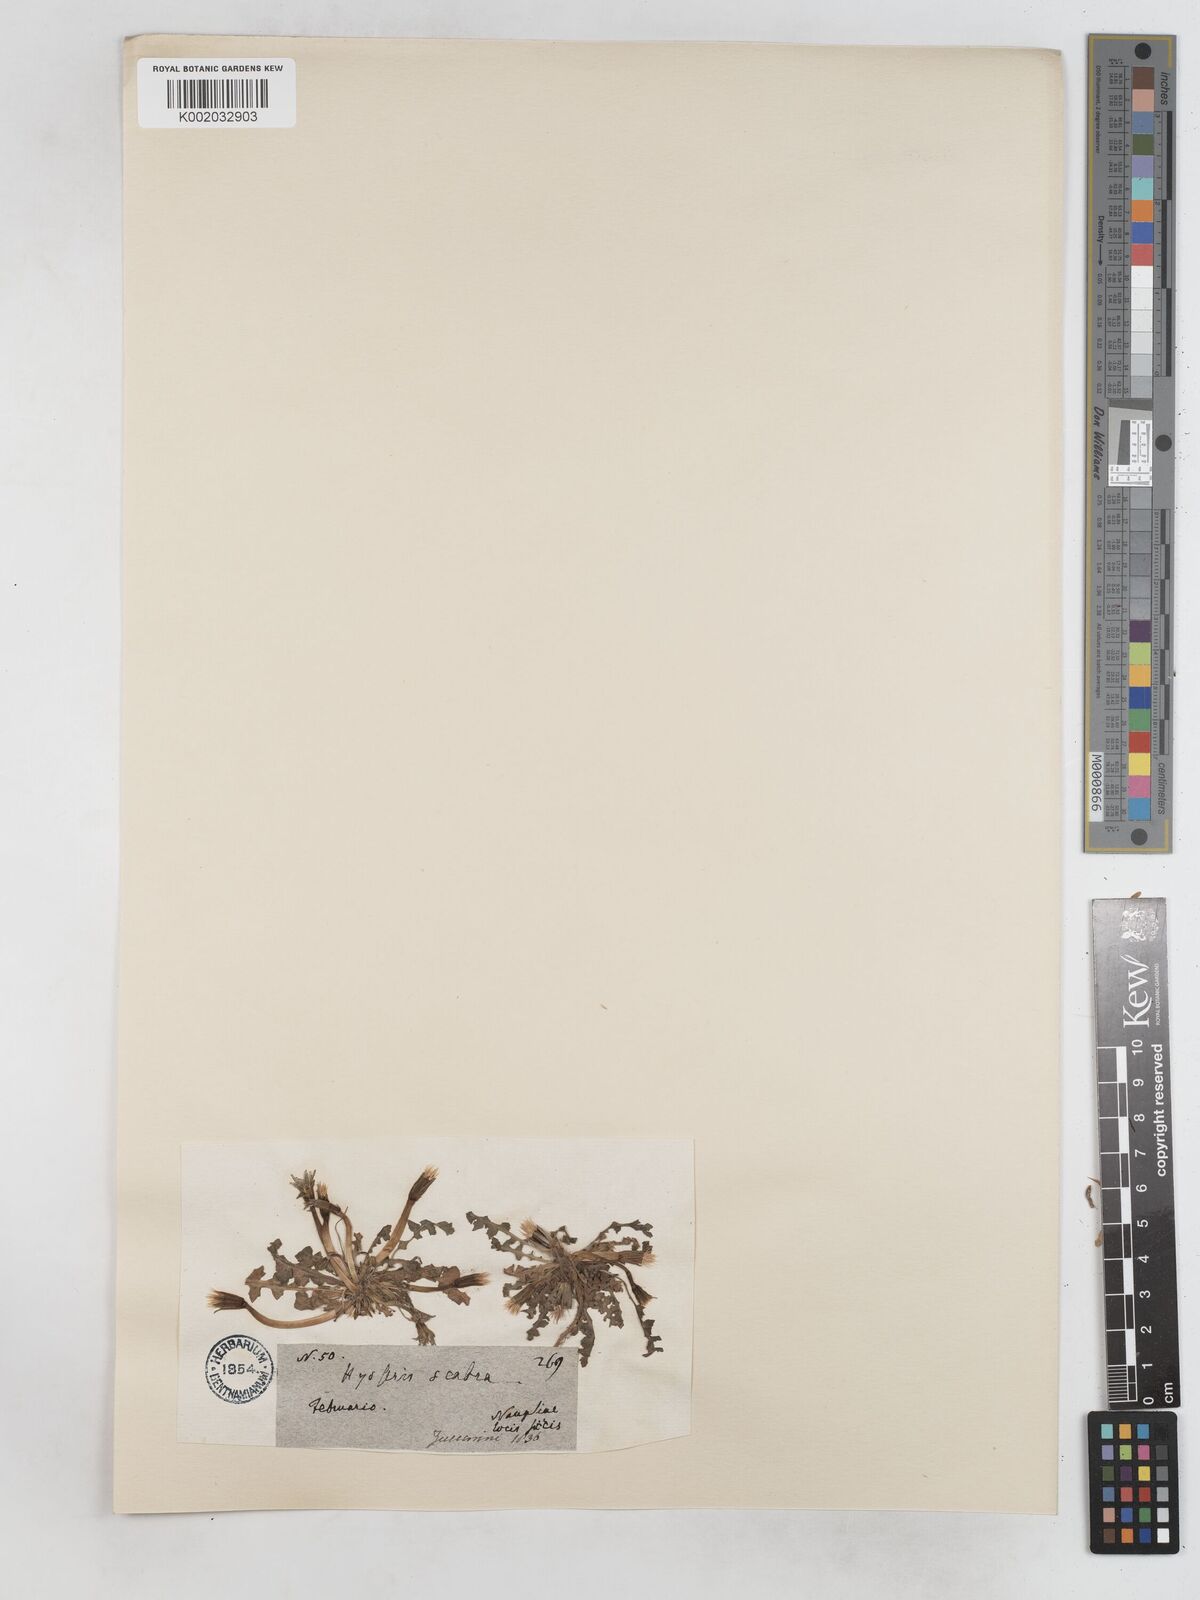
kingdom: Plantae
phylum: Tracheophyta
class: Magnoliopsida
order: Asterales
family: Asteraceae
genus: Hyoseris
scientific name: Hyoseris scabra
